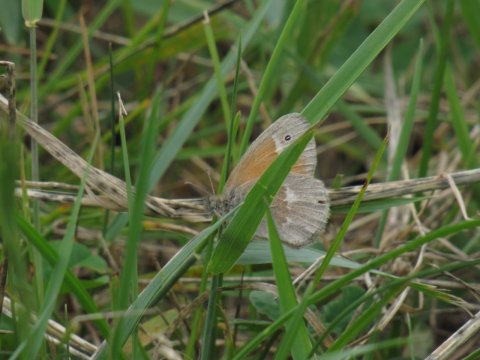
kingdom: Animalia
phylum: Arthropoda
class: Insecta
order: Lepidoptera
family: Nymphalidae
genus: Coenonympha
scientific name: Coenonympha tullia
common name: Large Heath
